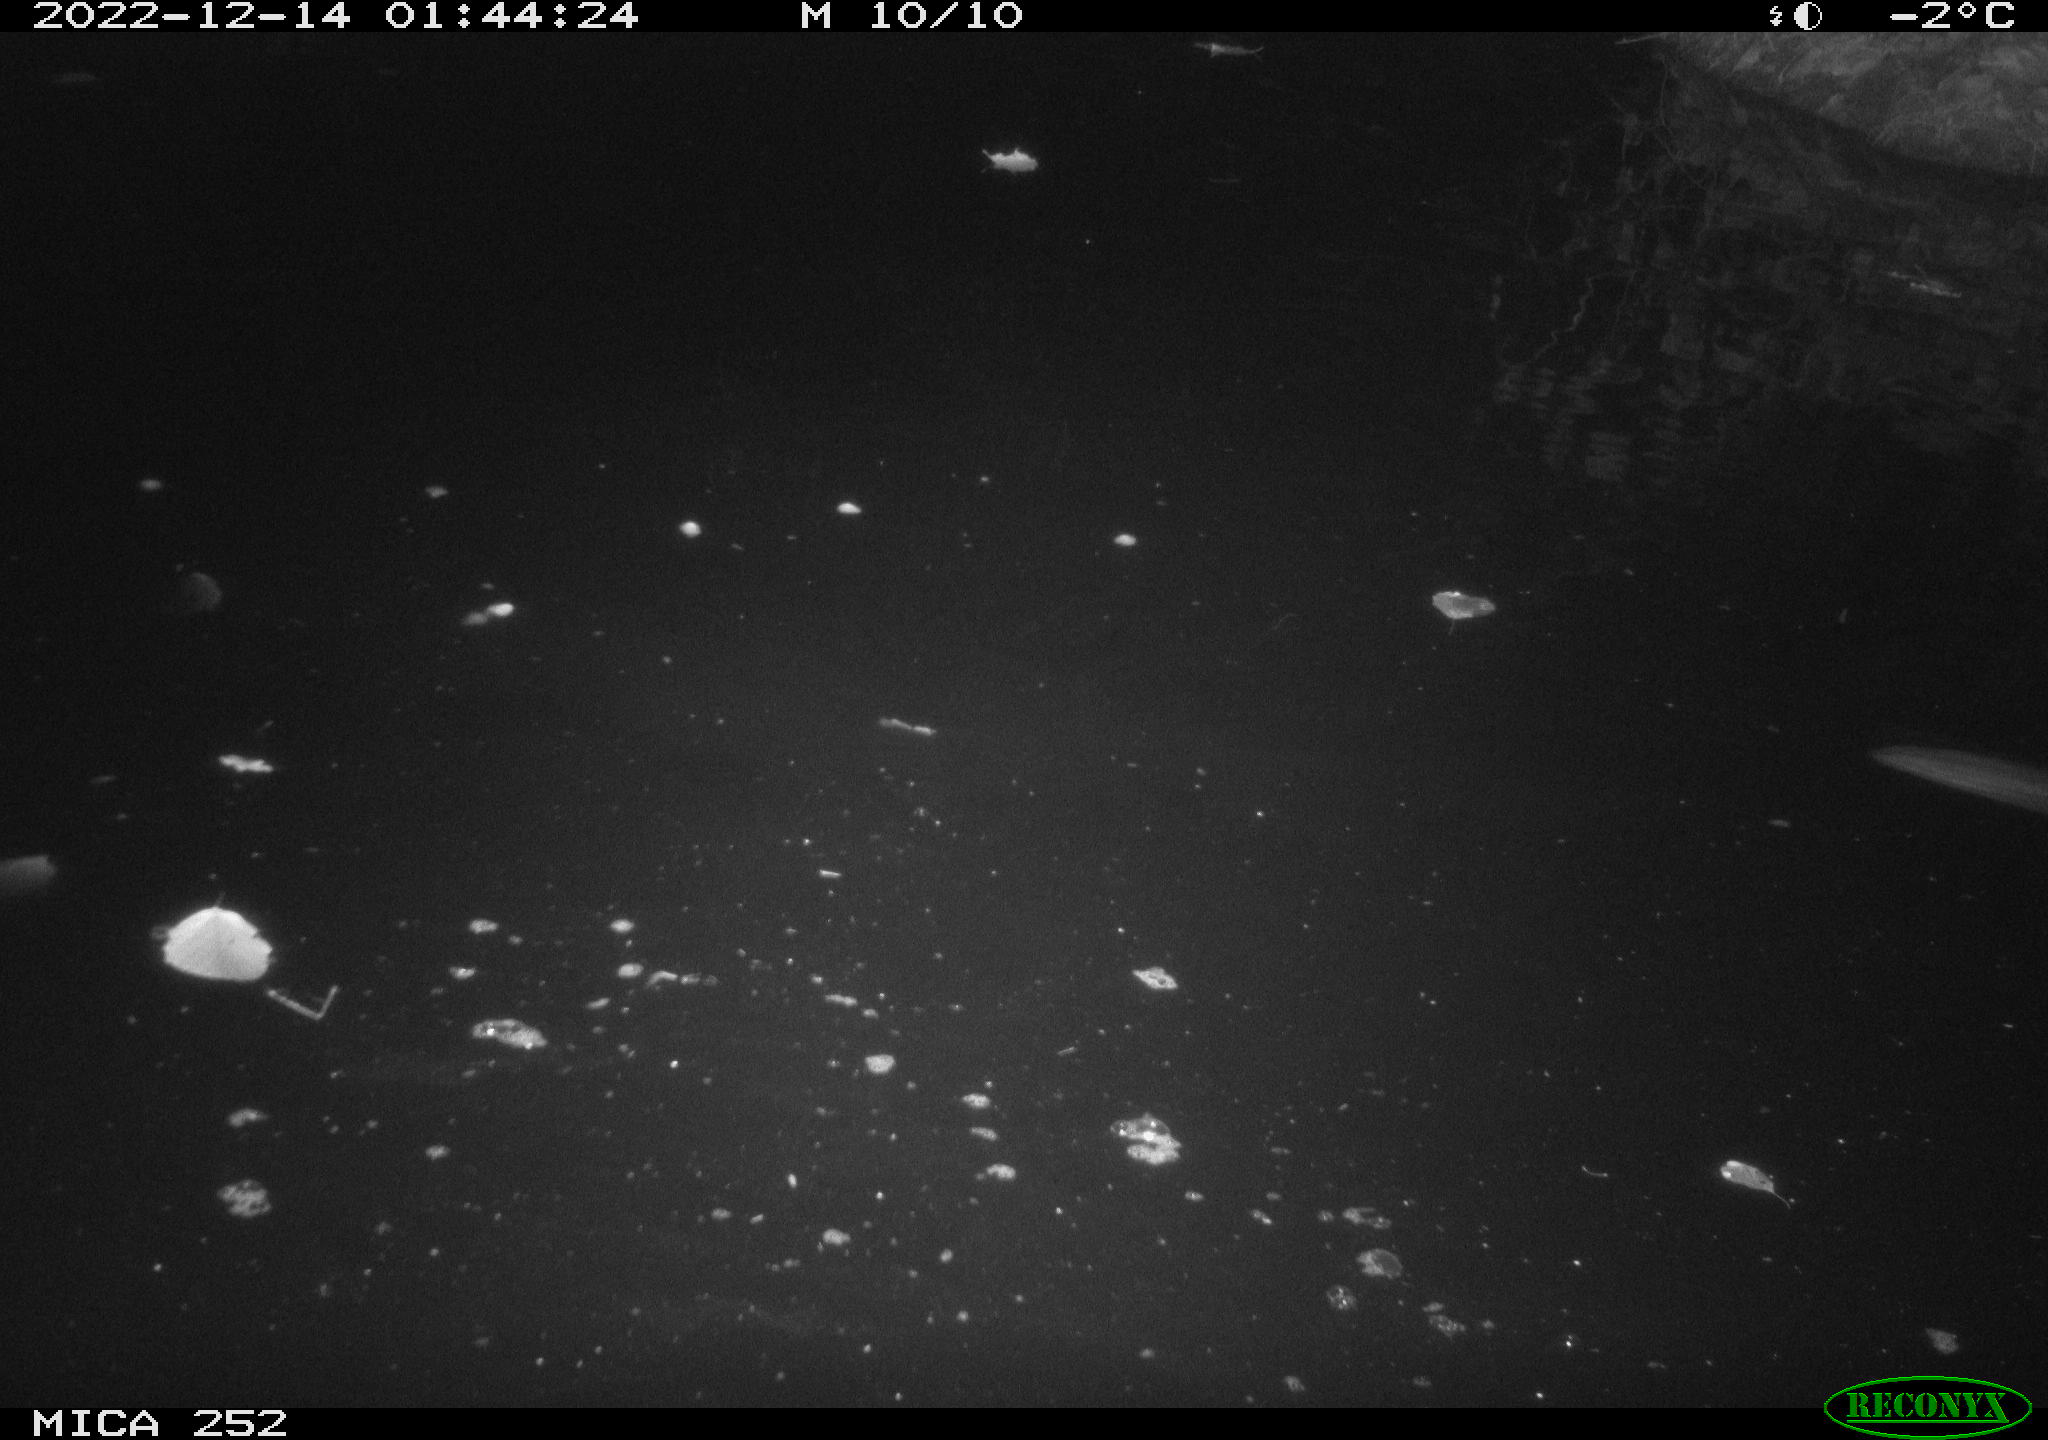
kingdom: Animalia
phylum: Chordata
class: Mammalia
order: Rodentia
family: Castoridae
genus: Castor
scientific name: Castor fiber
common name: Eurasian beaver
